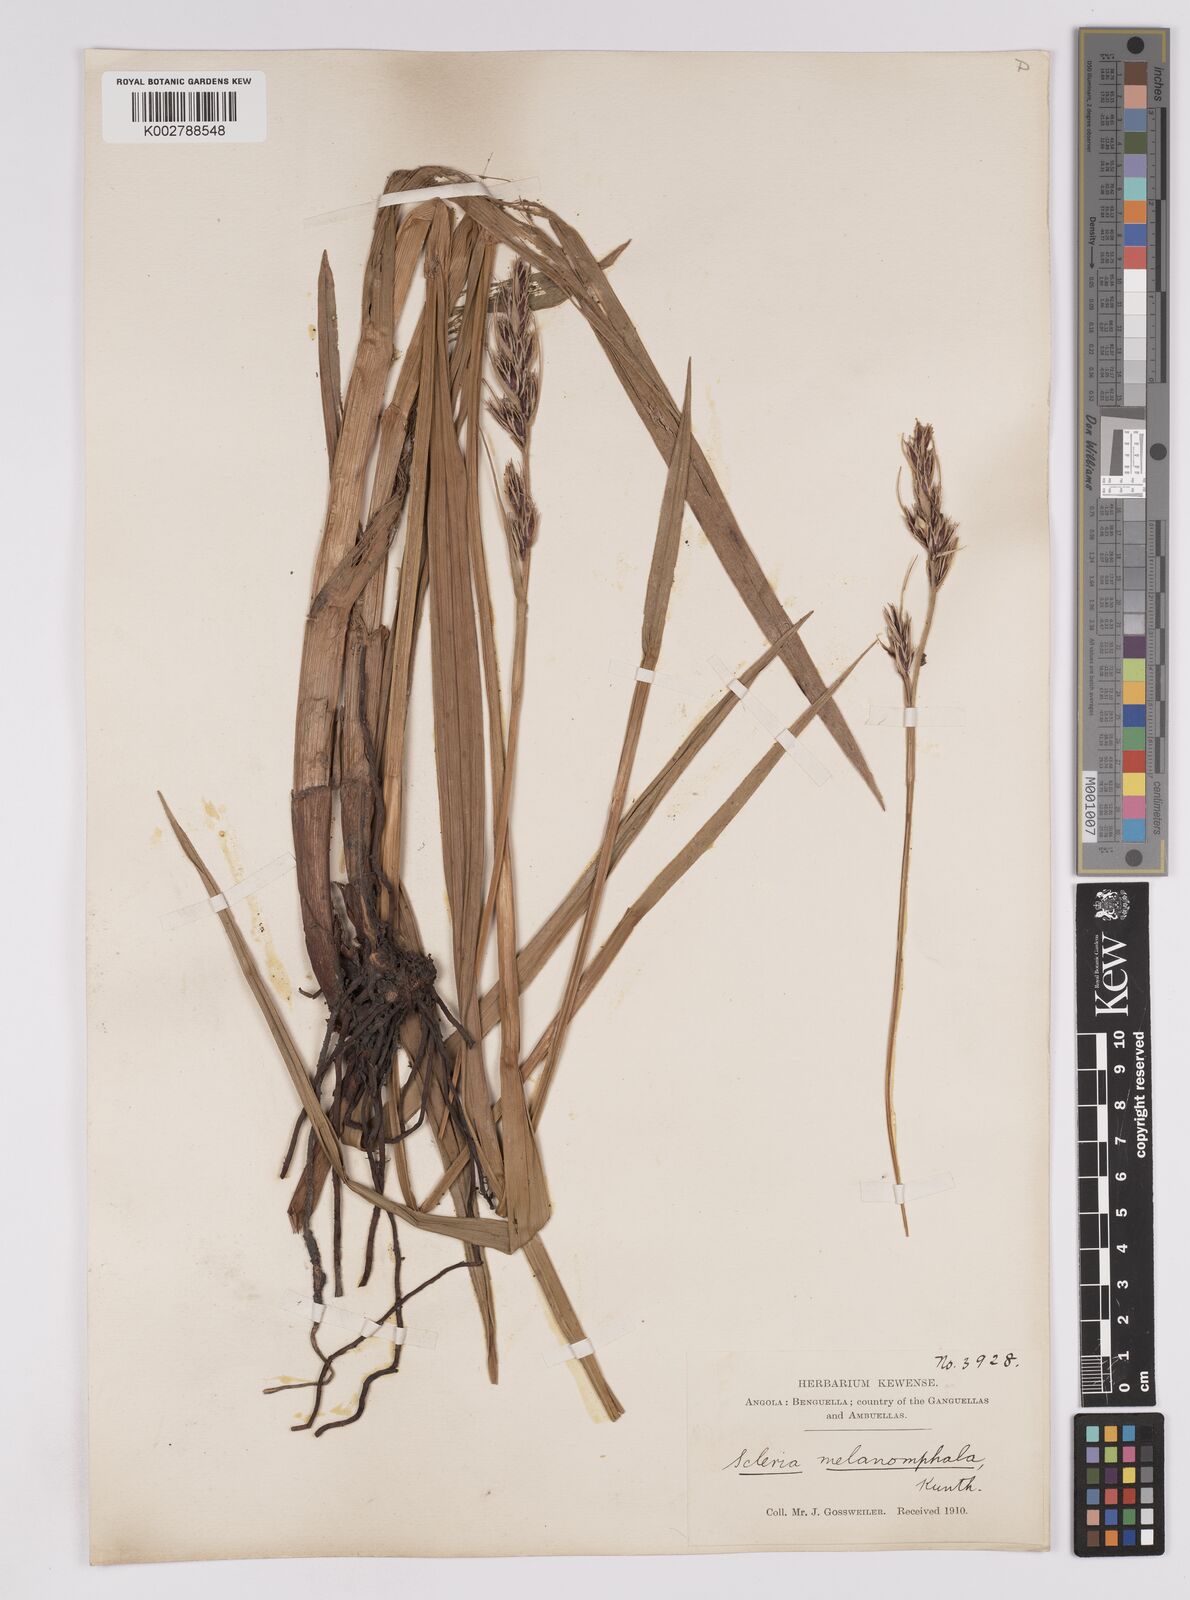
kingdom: Plantae
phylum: Tracheophyta
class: Liliopsida
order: Poales
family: Cyperaceae
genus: Scleria
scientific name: Scleria melanomphala
